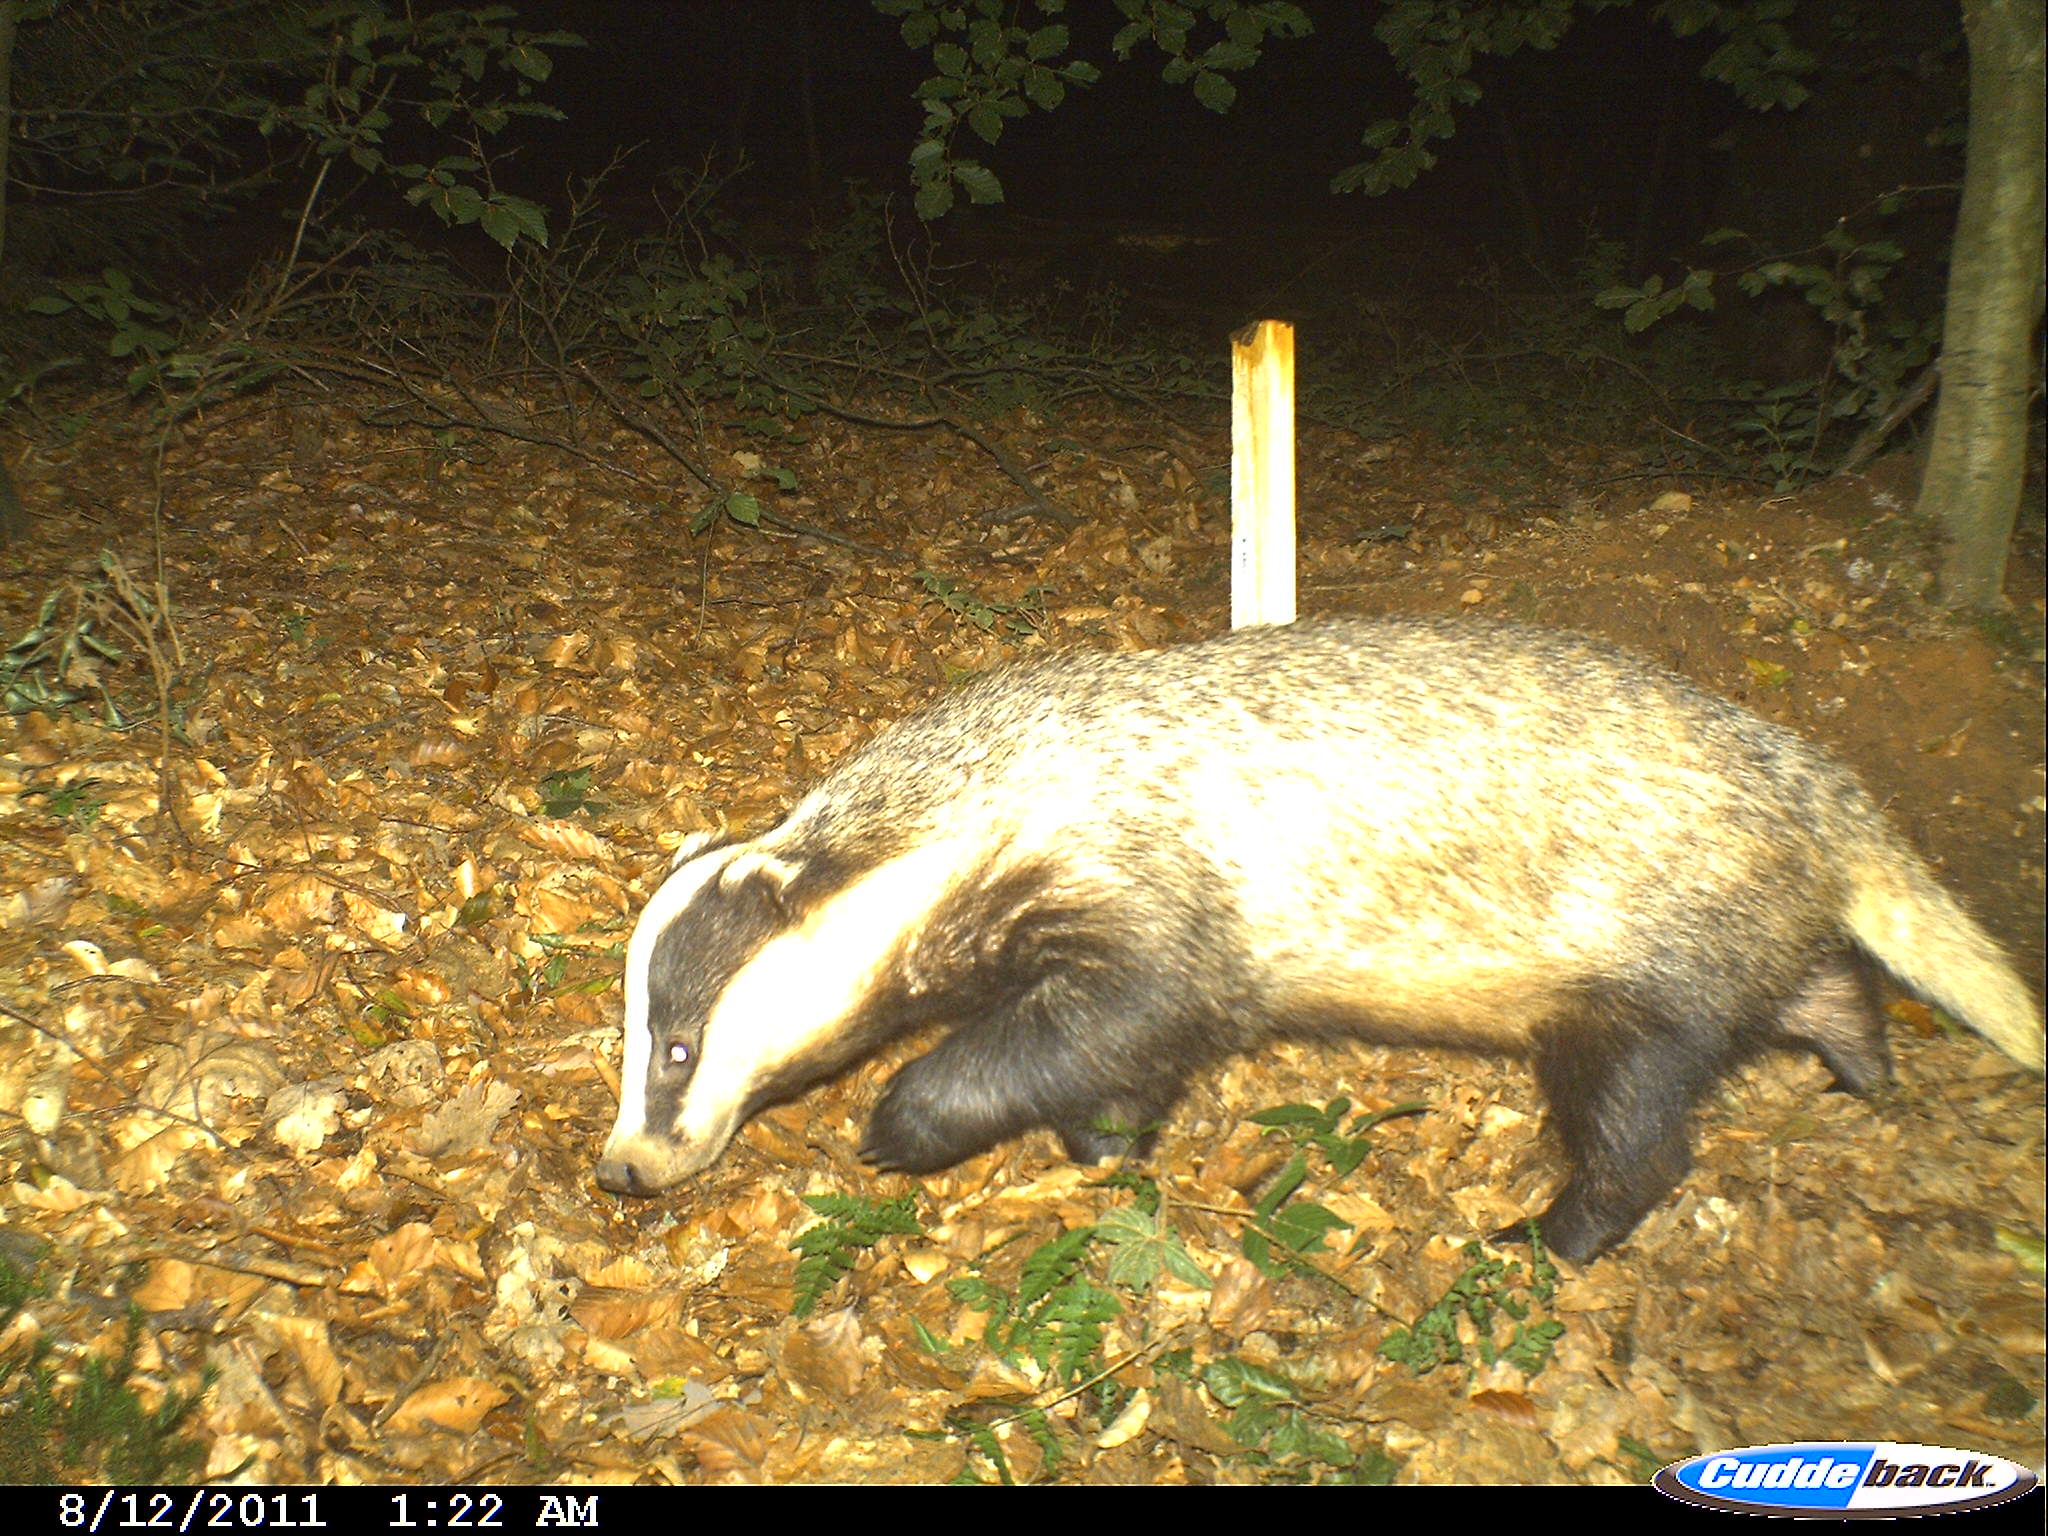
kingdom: Animalia
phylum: Chordata
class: Mammalia
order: Carnivora
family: Mustelidae
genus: Meles
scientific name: Meles meles
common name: Eurasian badger
